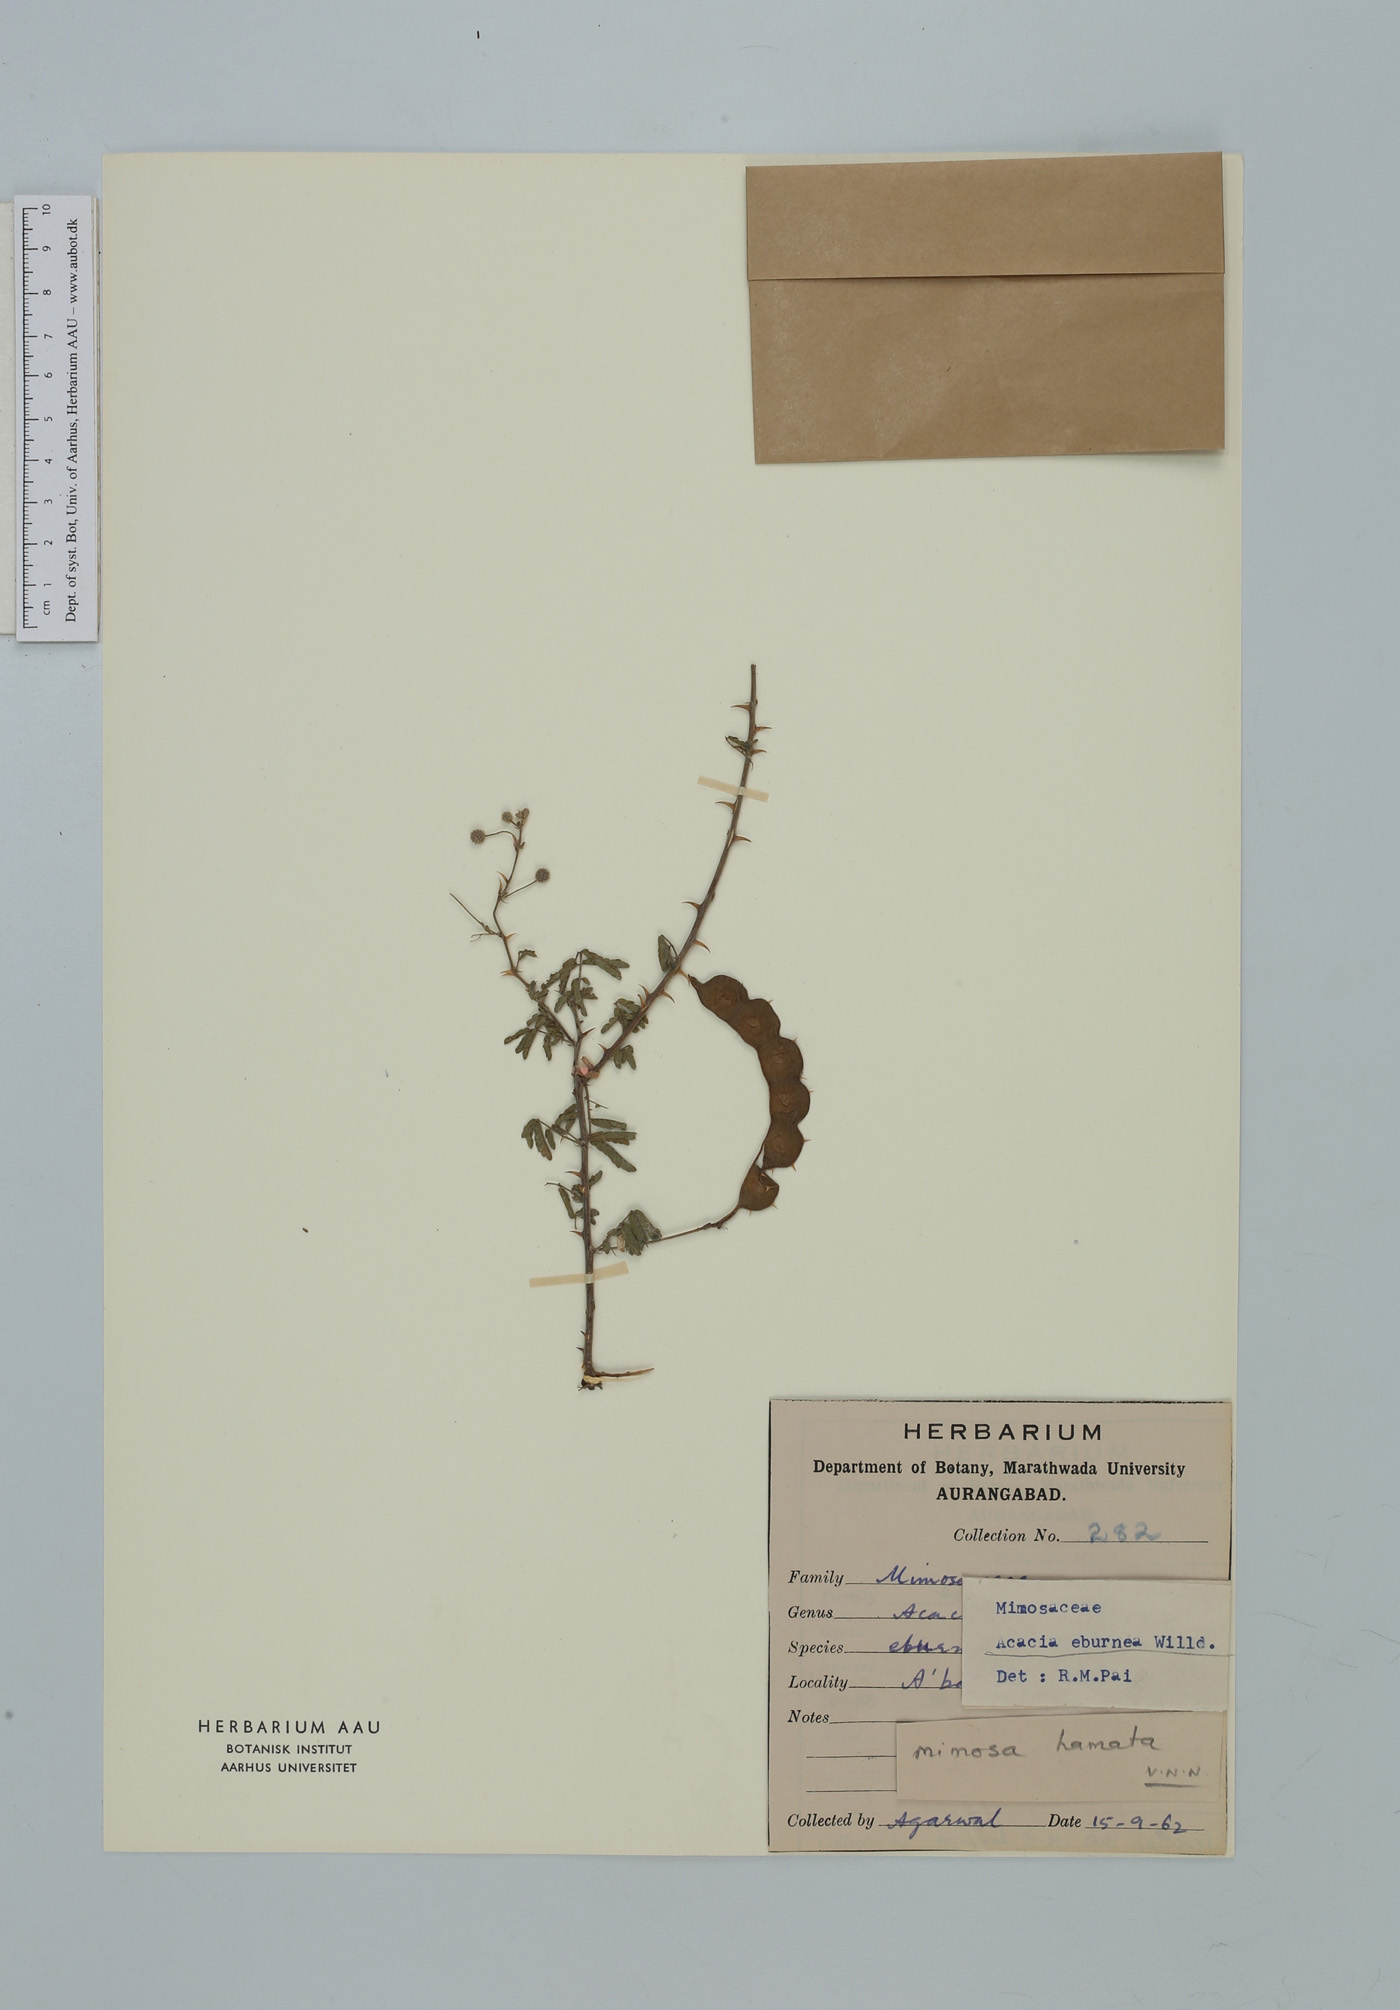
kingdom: Plantae
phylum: Tracheophyta
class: Magnoliopsida
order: Fabales
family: Fabaceae
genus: Vachellia
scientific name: Vachellia eburnea
